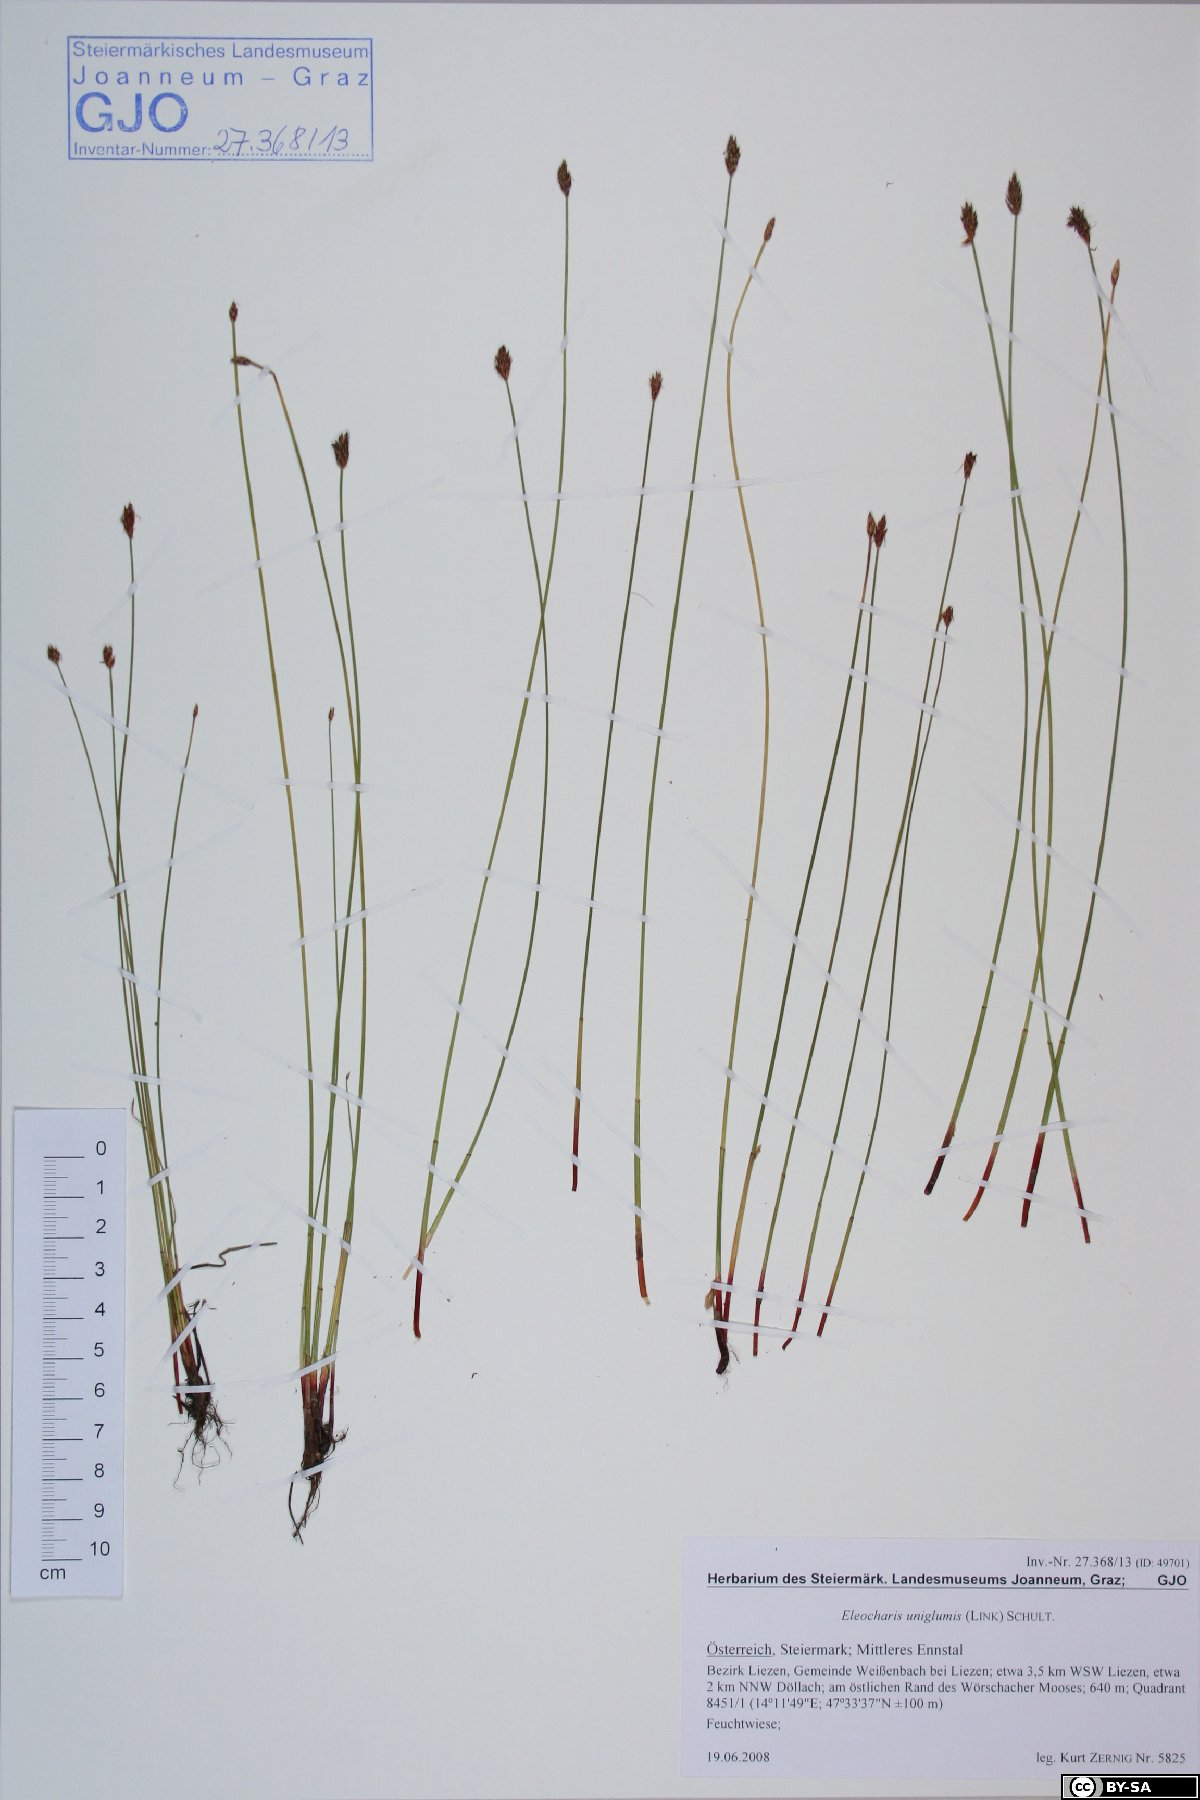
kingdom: Plantae
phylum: Tracheophyta
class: Liliopsida
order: Poales
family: Cyperaceae
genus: Eleocharis
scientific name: Eleocharis uniglumis
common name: Slender spike-rush
